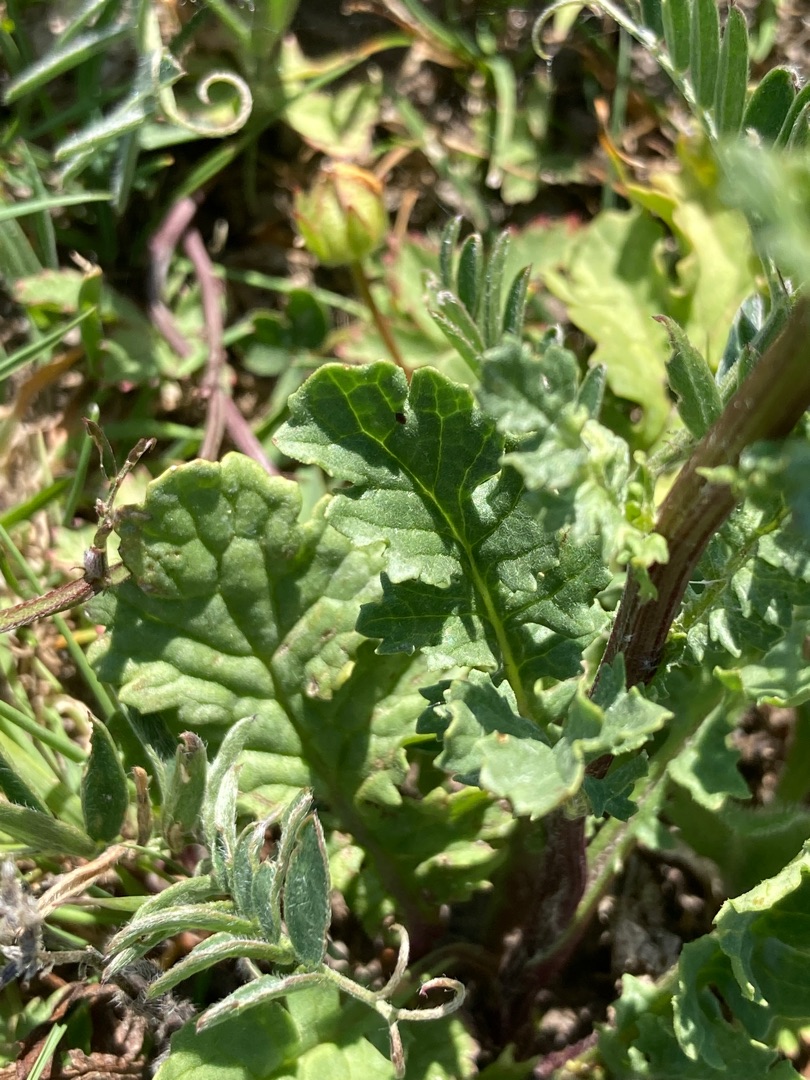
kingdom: Plantae
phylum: Tracheophyta
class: Magnoliopsida
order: Asterales
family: Asteraceae
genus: Jacobaea
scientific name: Jacobaea vulgaris
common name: Eng-brandbæger
